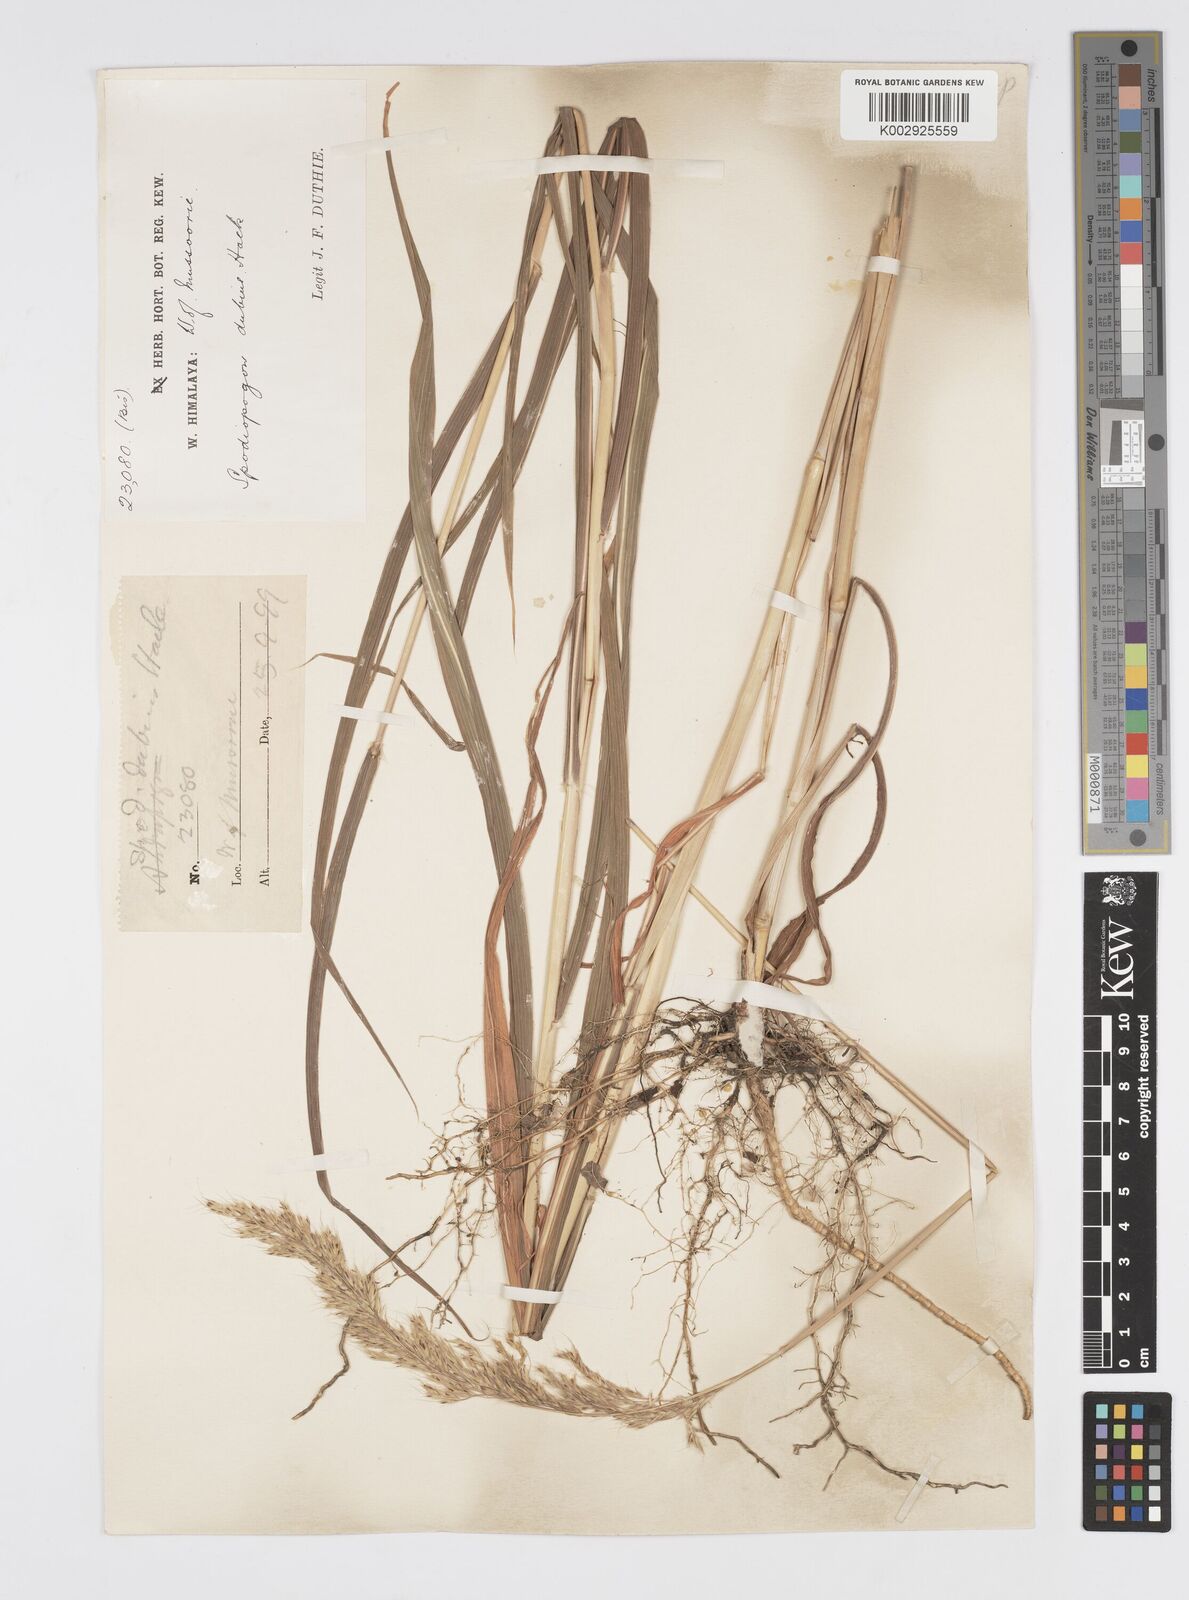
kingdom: Plantae
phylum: Tracheophyta
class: Liliopsida
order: Poales
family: Poaceae
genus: Spodiopogon
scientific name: Spodiopogon dubius
